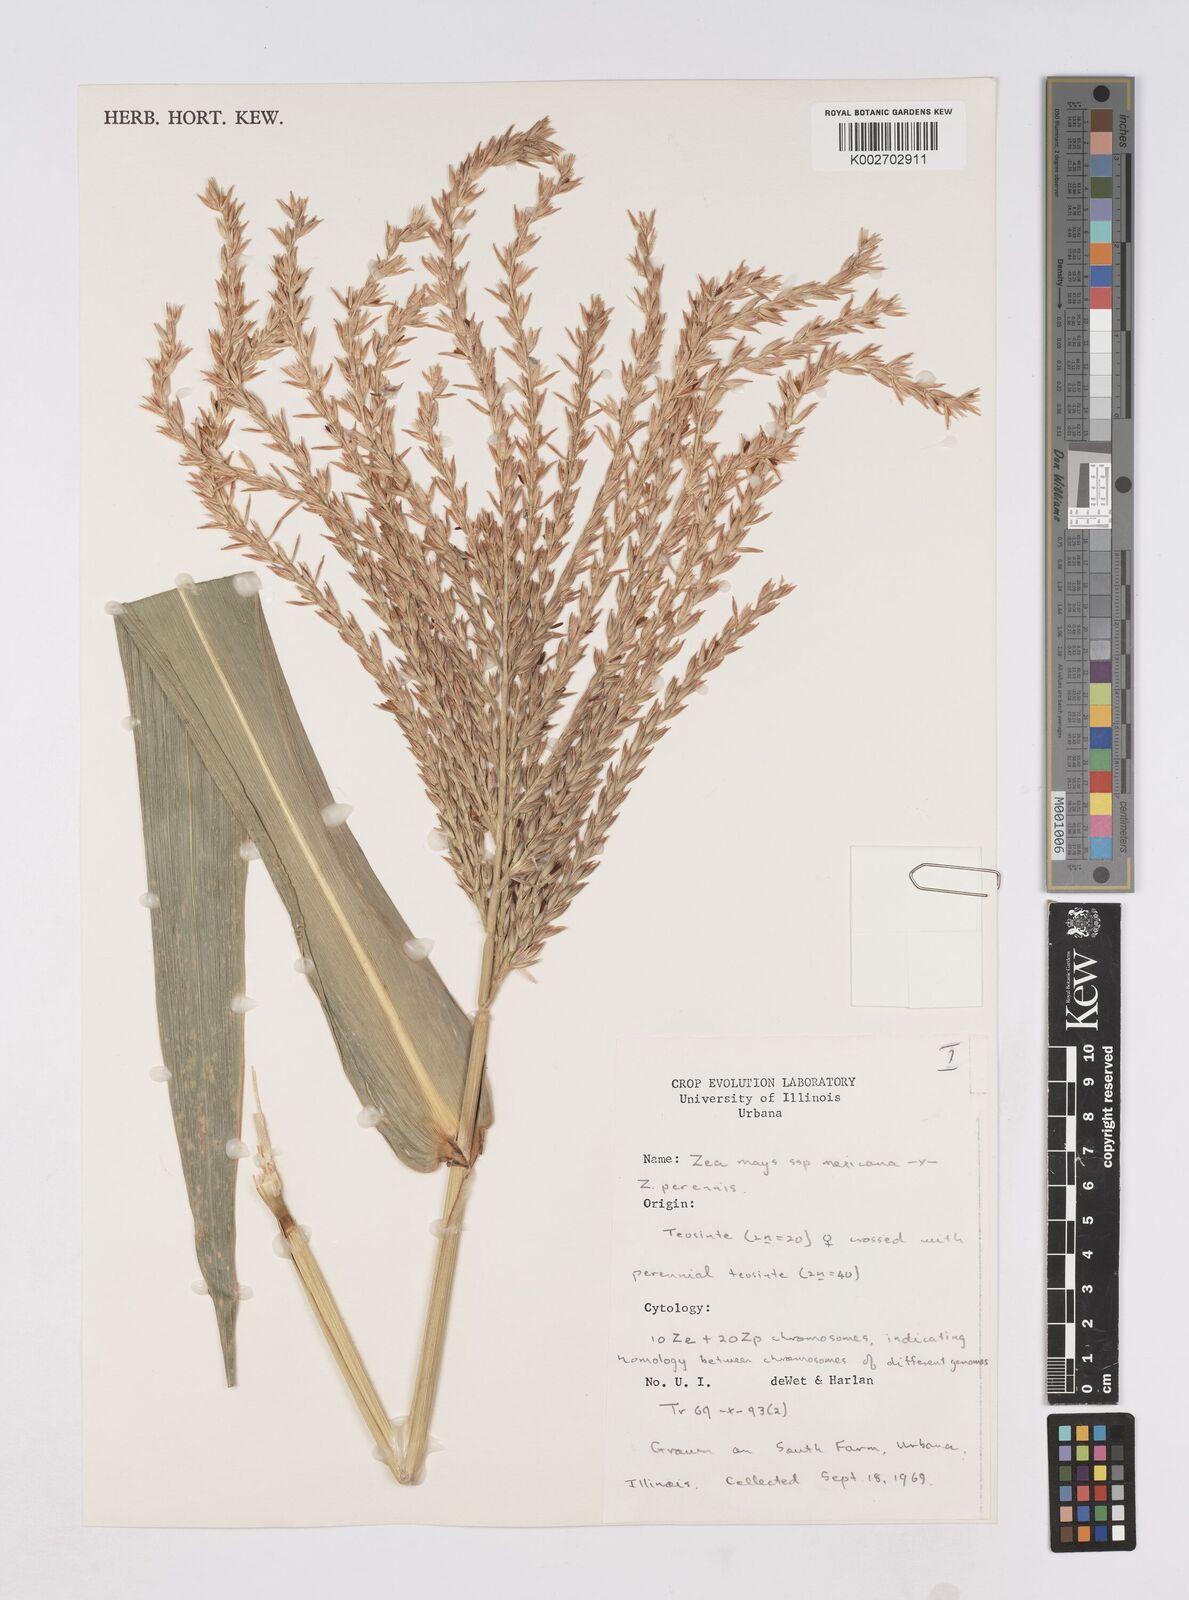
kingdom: Plantae
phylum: Tracheophyta
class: Liliopsida
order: Poales
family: Poaceae
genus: Zea
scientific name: Zea mexicana
